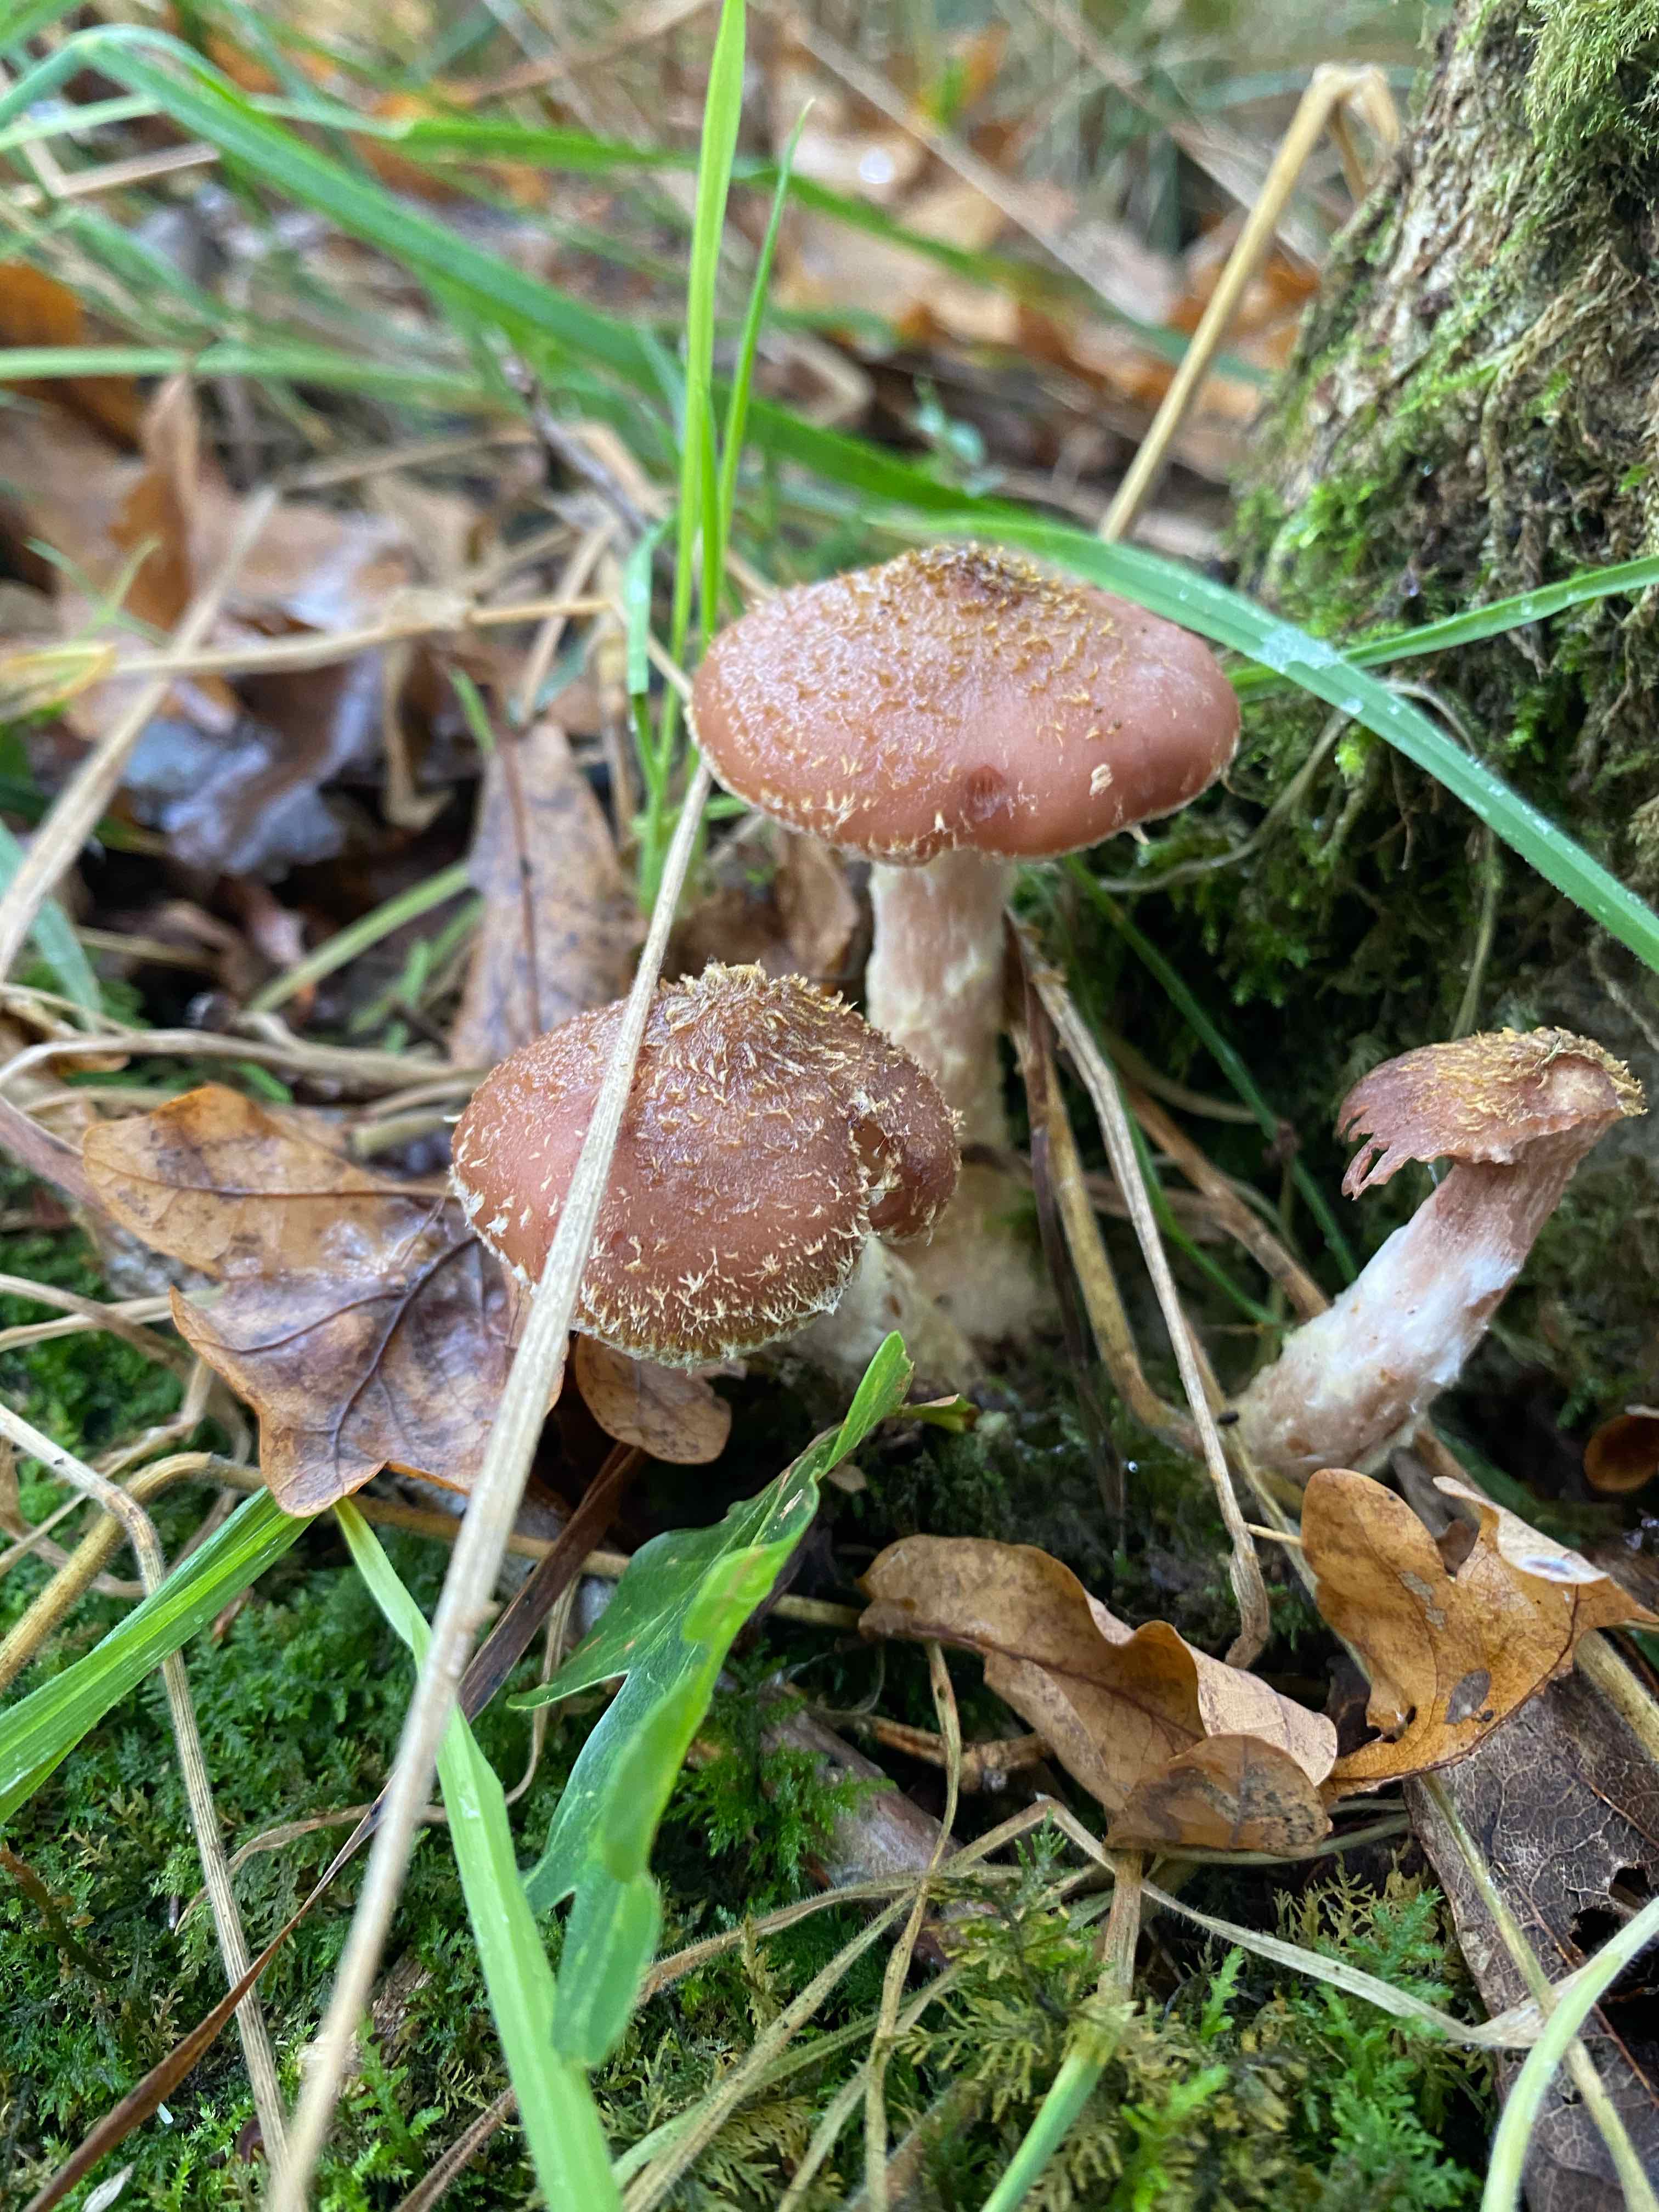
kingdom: Fungi
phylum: Basidiomycota
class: Agaricomycetes
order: Agaricales
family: Physalacriaceae
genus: Armillaria
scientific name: Armillaria lutea
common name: køllestokket honningsvamp
